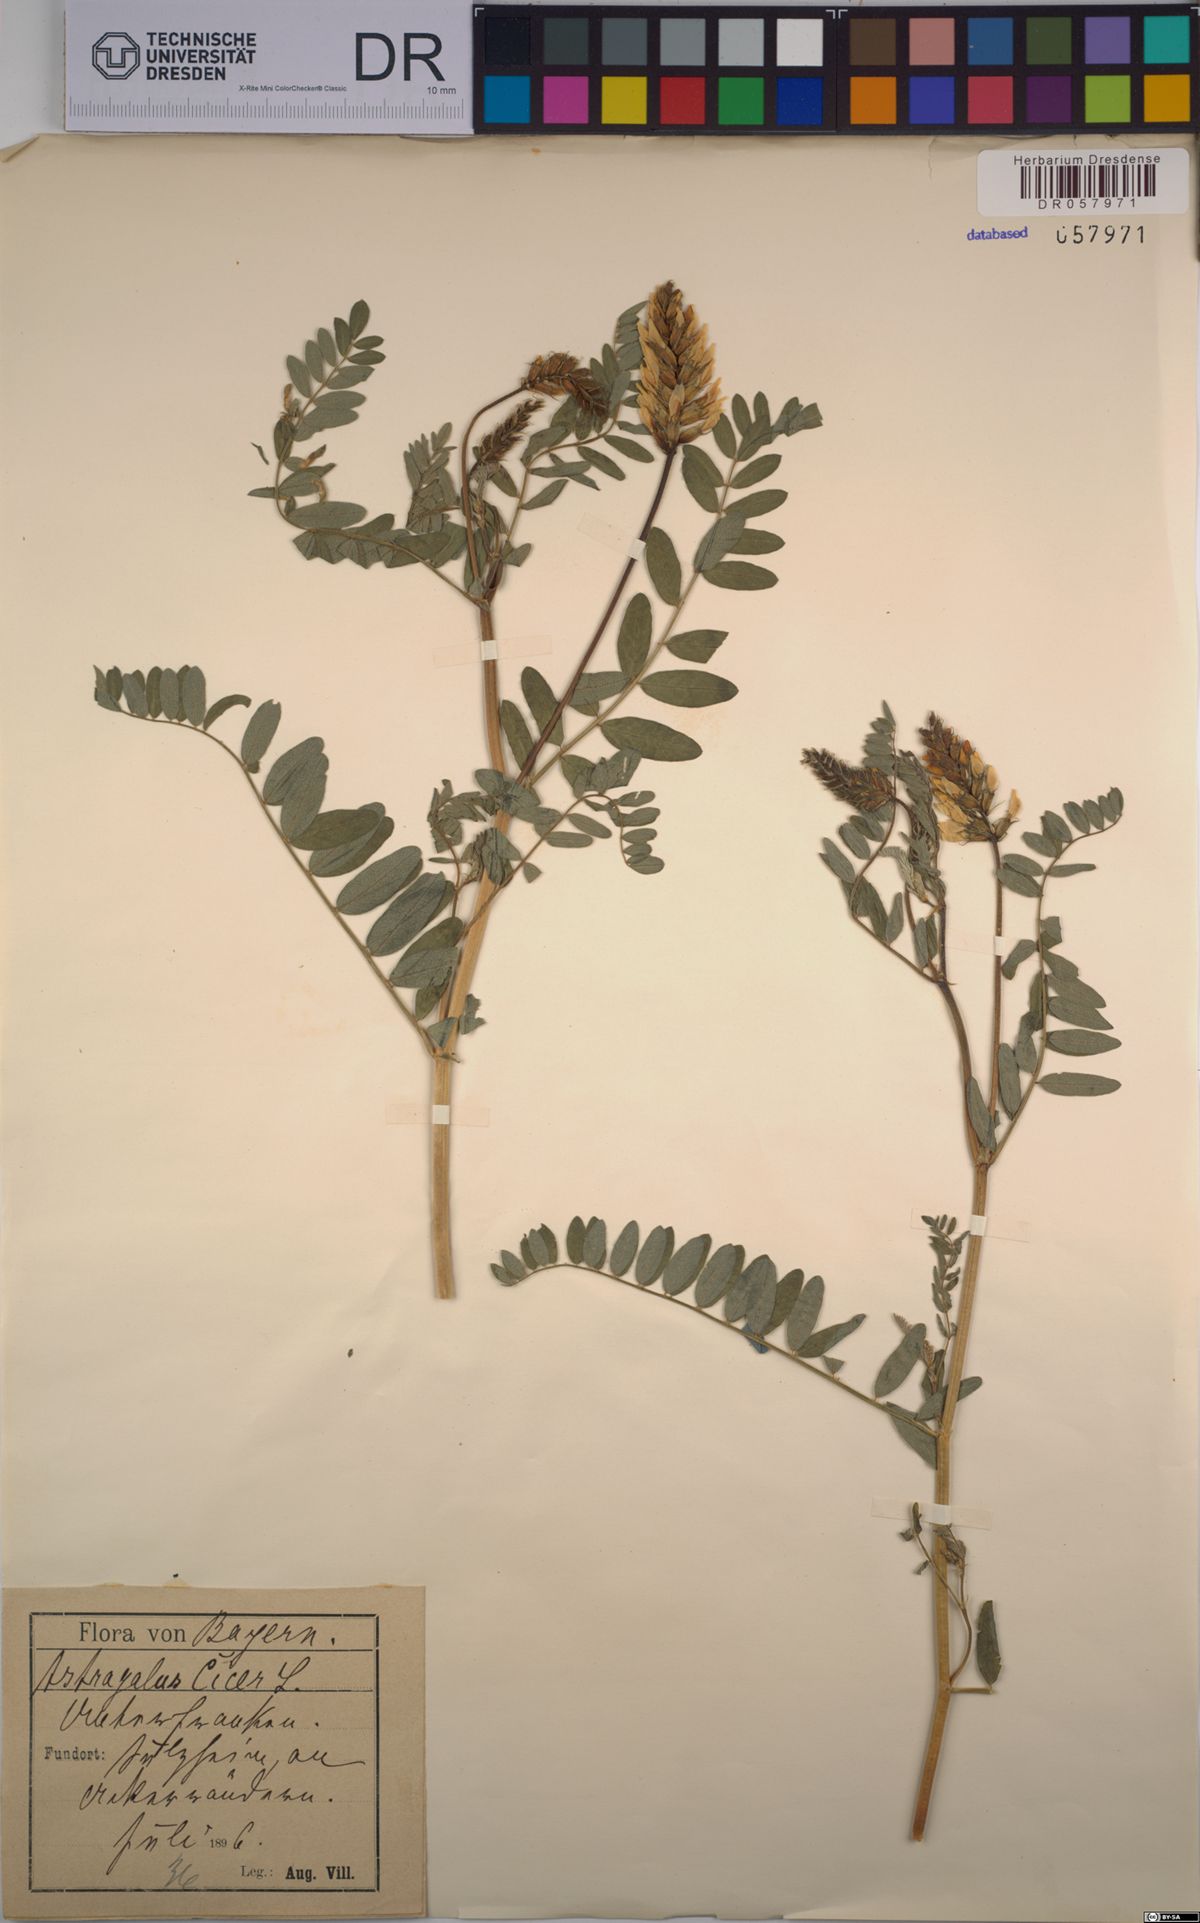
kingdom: Plantae
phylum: Tracheophyta
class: Magnoliopsida
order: Fabales
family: Fabaceae
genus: Astragalus
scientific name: Astragalus cicer
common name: Chick-pea milk-vetch
